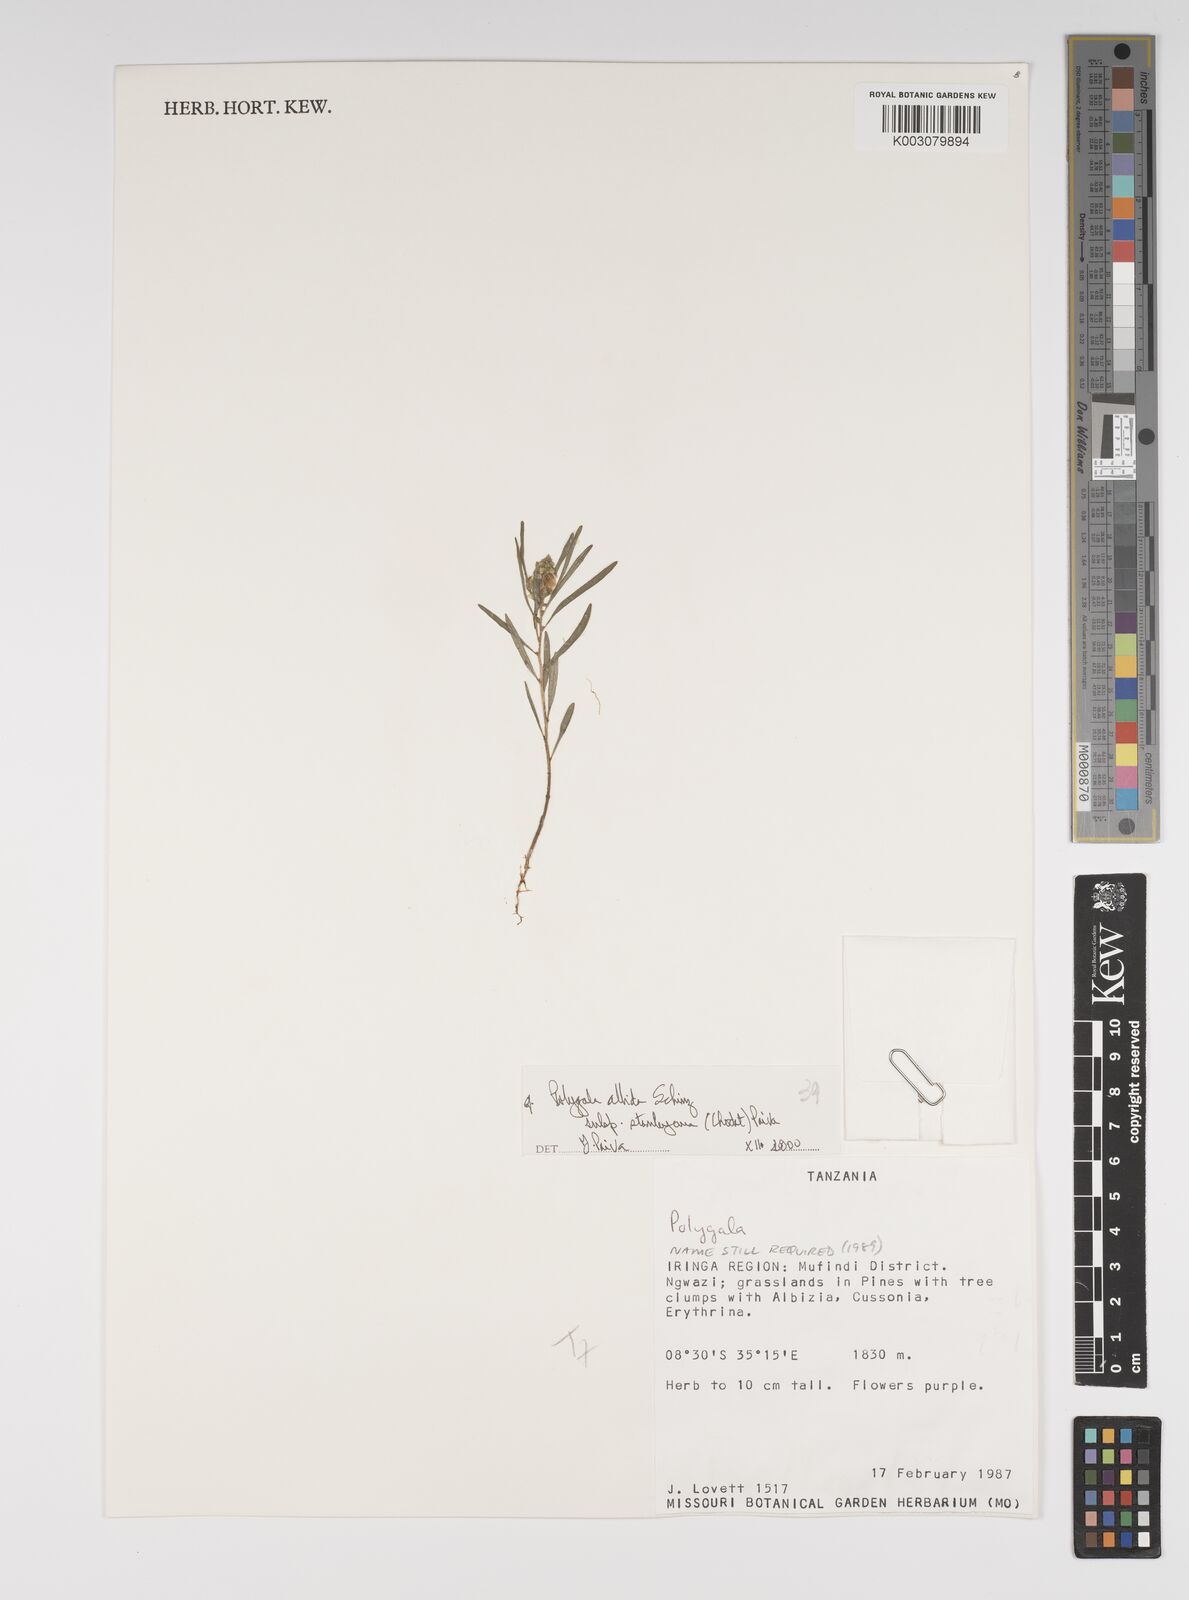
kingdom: Plantae
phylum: Tracheophyta
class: Magnoliopsida
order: Fabales
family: Polygalaceae
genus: Polygala
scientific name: Polygala albida
